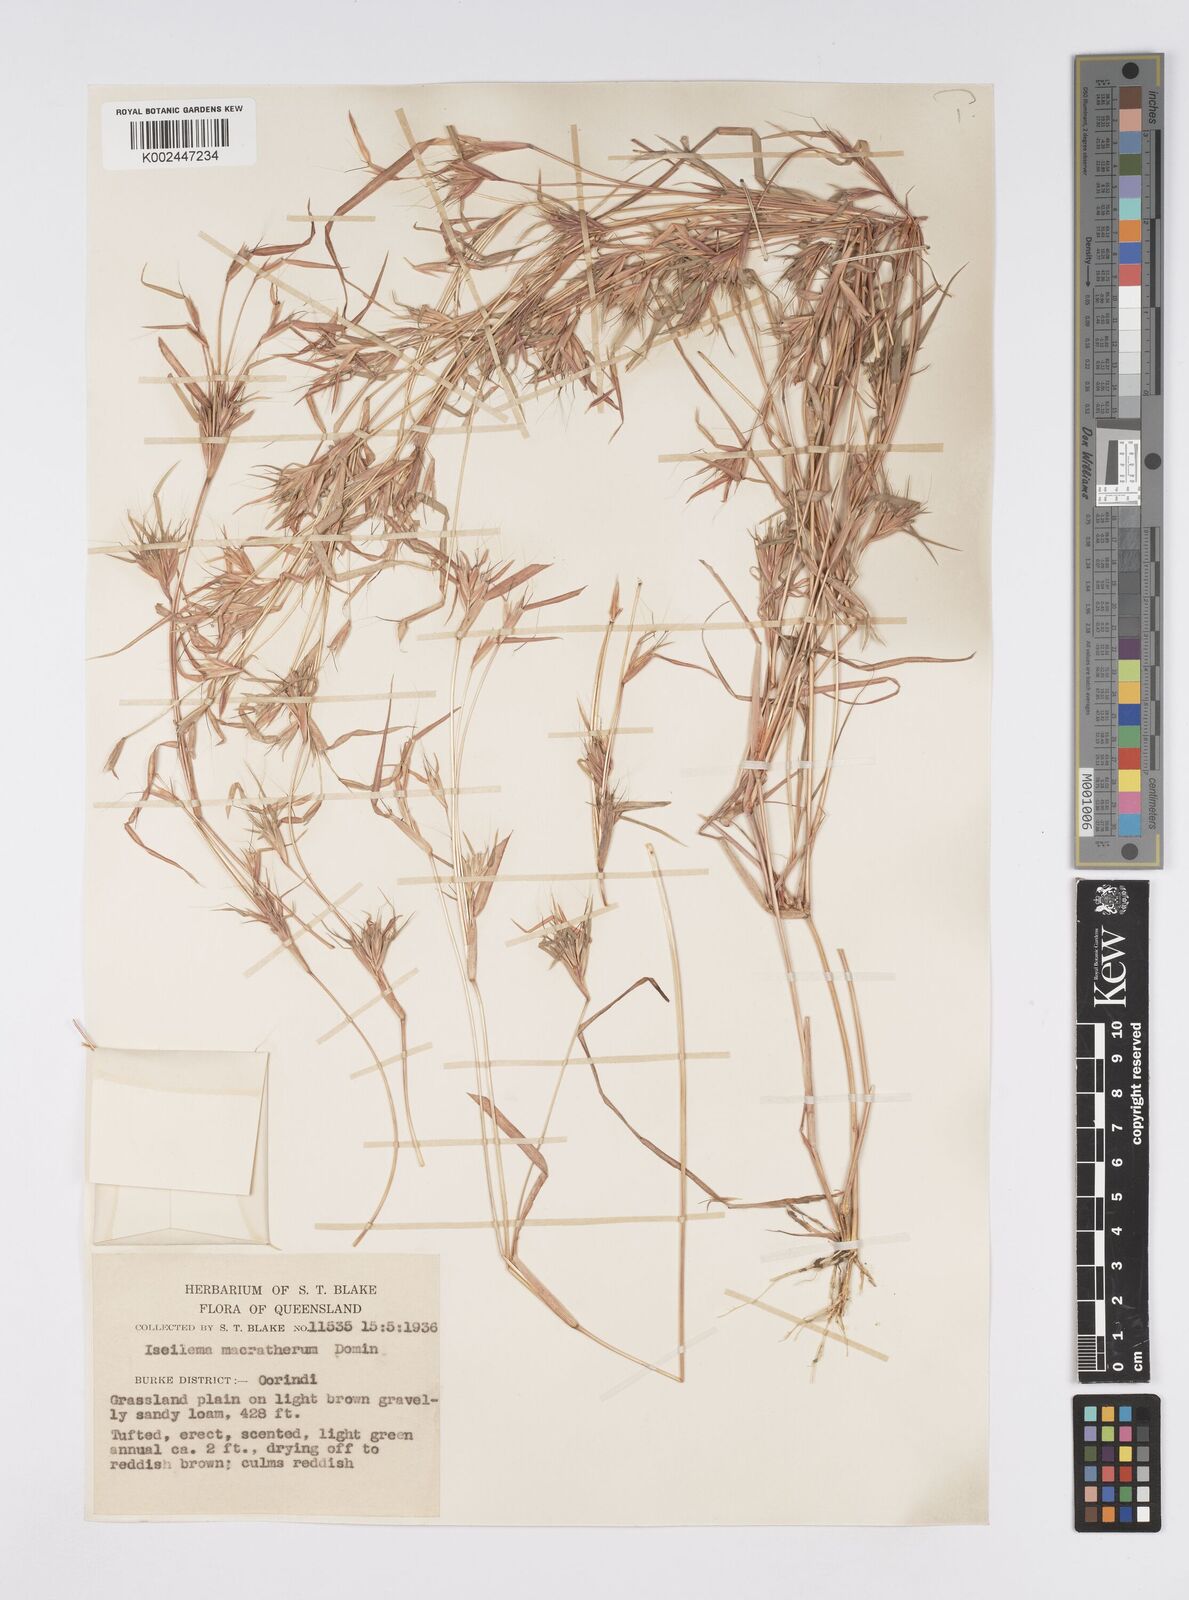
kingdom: Plantae
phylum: Tracheophyta
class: Liliopsida
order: Poales
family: Poaceae
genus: Iseilema
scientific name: Iseilema macratherum
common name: Bull flinders grass
